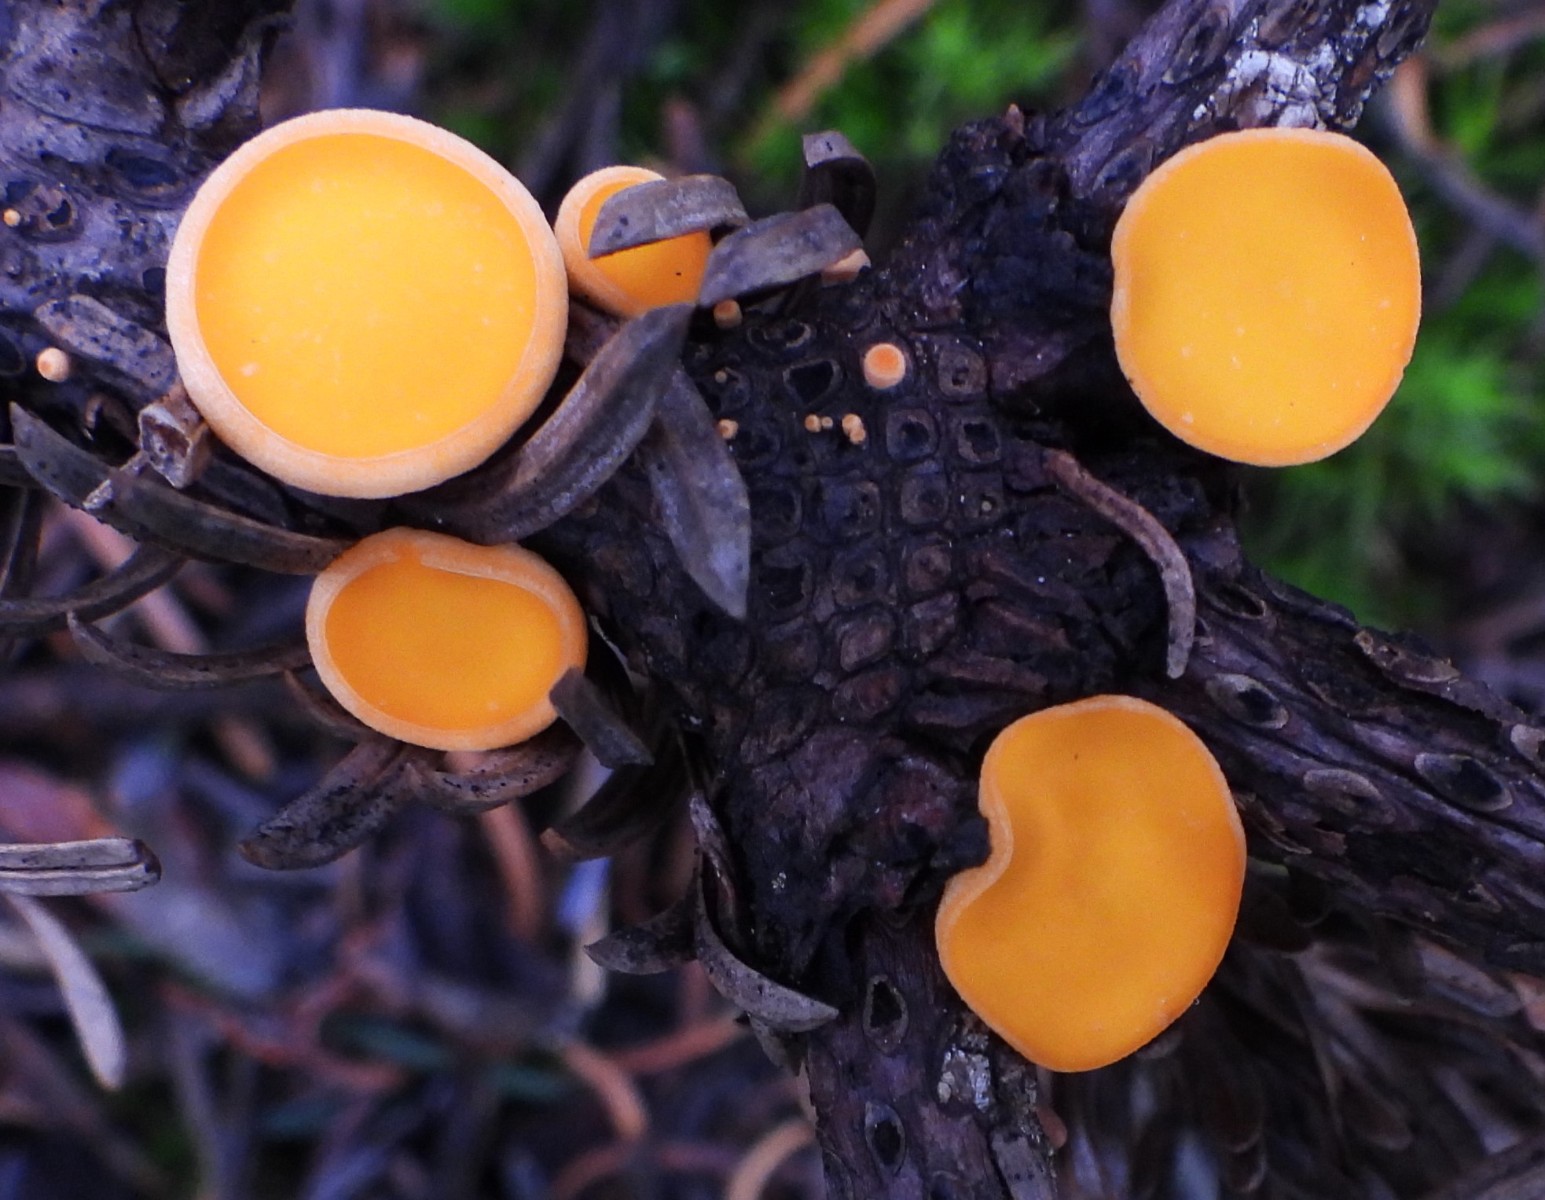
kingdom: Fungi
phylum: Ascomycota
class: Pezizomycetes
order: Pezizales
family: Sarcoscyphaceae
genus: Pithya
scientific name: Pithya vulgaris
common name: stor dukatbæger
